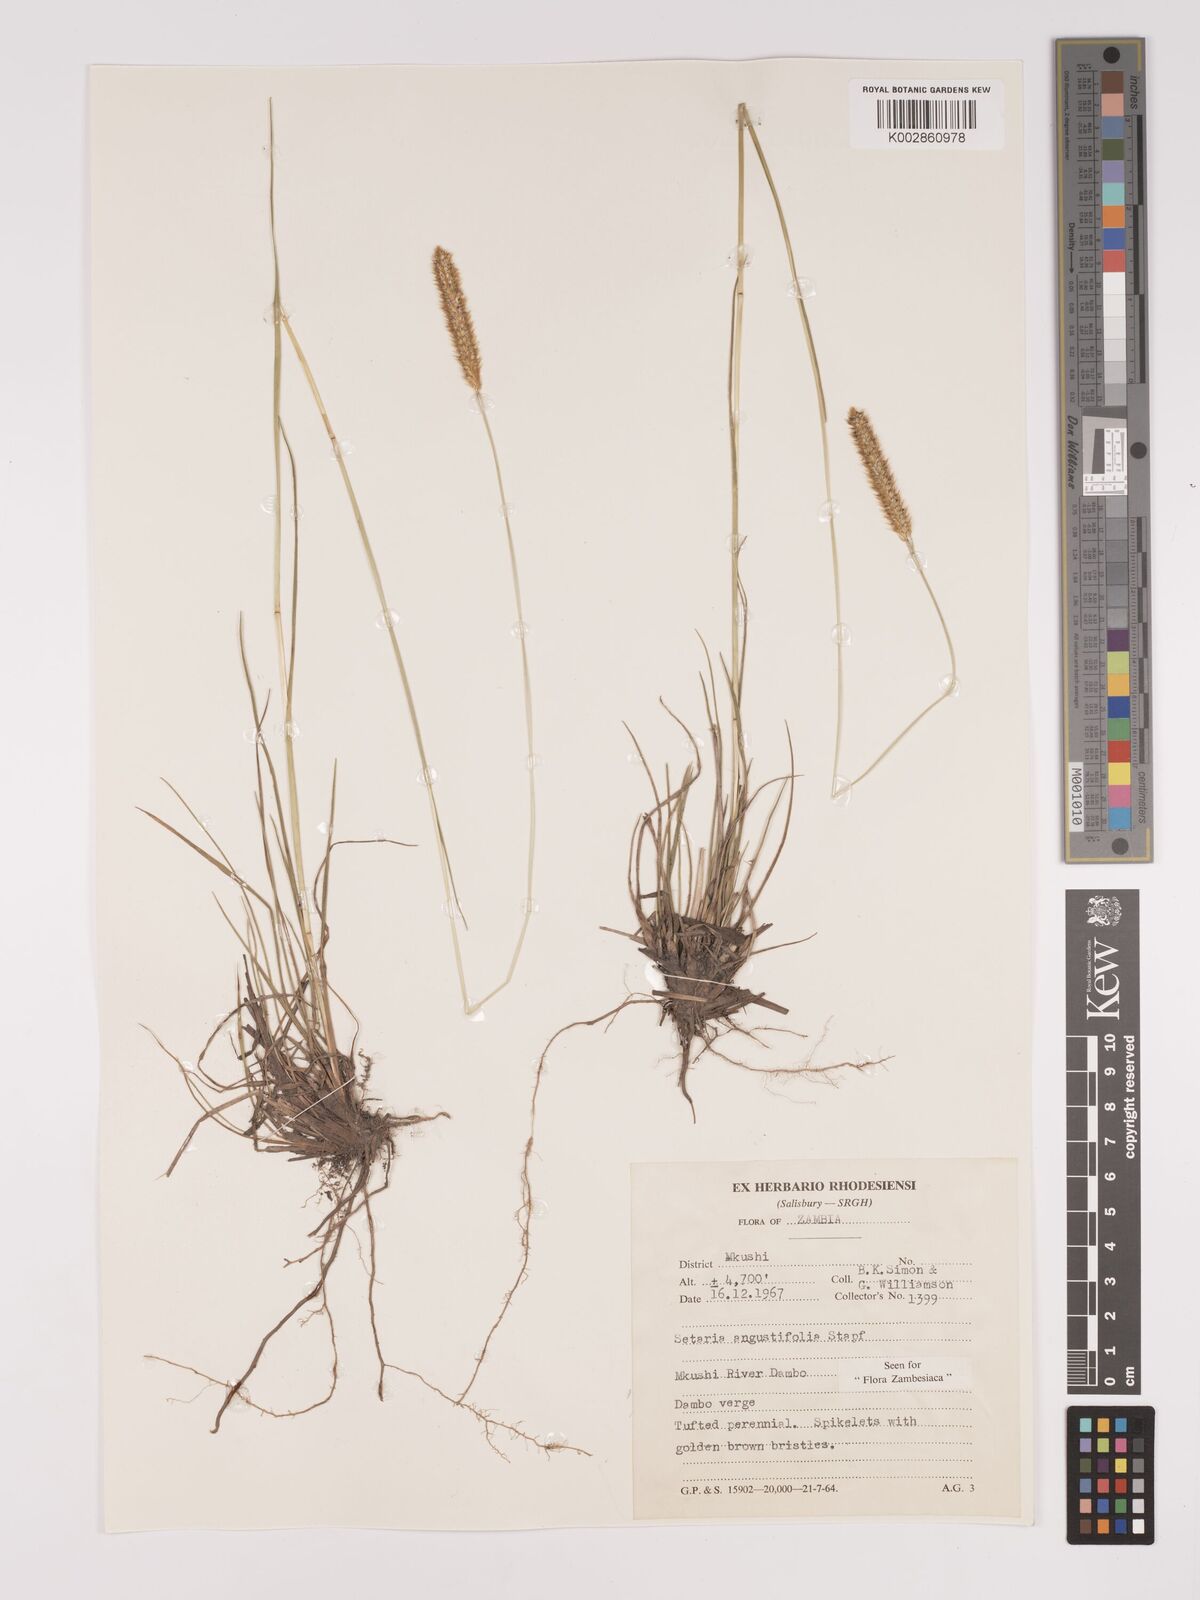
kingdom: Plantae
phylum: Tracheophyta
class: Liliopsida
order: Poales
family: Poaceae
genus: Setaria
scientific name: Setaria
